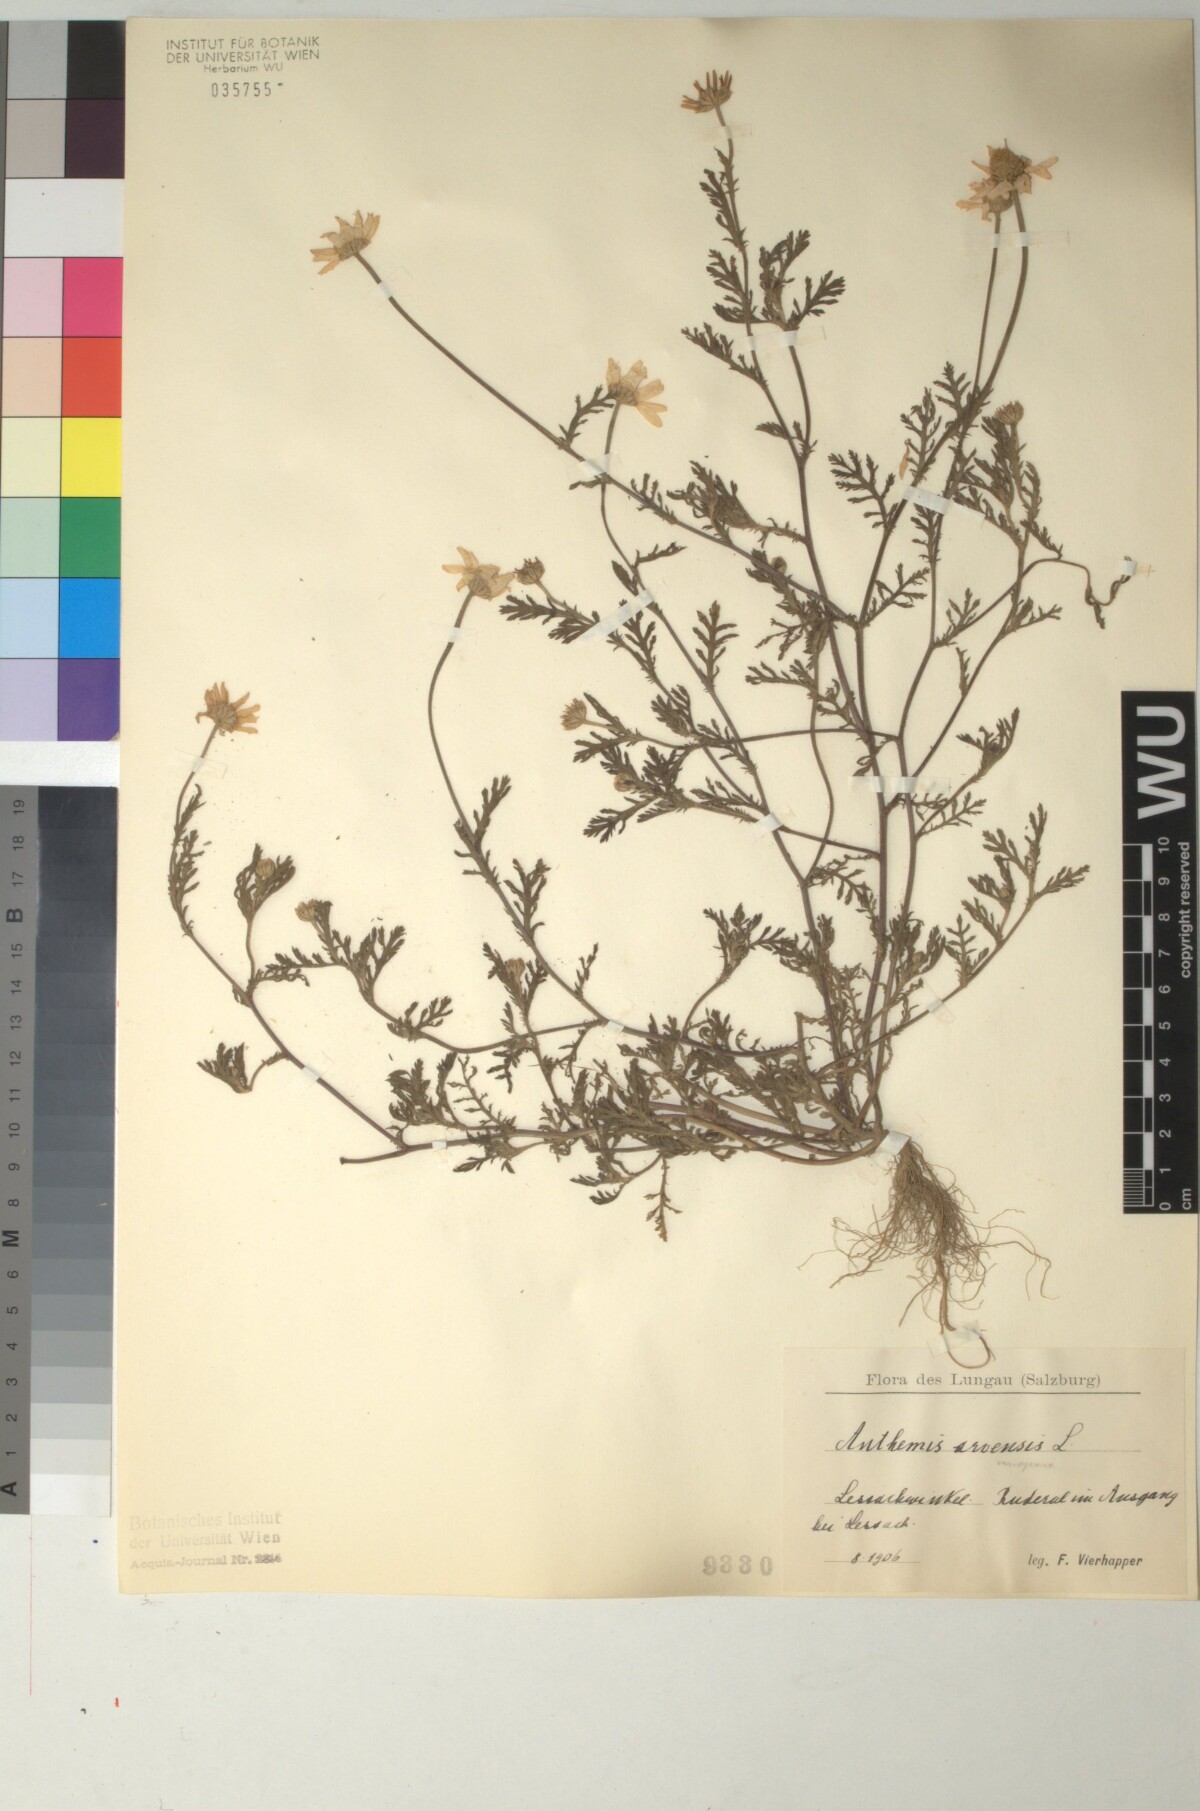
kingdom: Plantae
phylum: Tracheophyta
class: Magnoliopsida
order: Asterales
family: Asteraceae
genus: Anthemis
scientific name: Anthemis arvensis
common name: Corn chamomile
